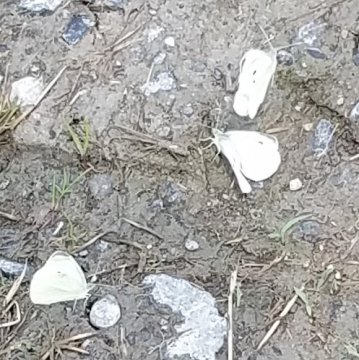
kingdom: Animalia
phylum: Arthropoda
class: Insecta
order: Lepidoptera
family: Pieridae
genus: Pieris
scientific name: Pieris rapae
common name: Cabbage White
